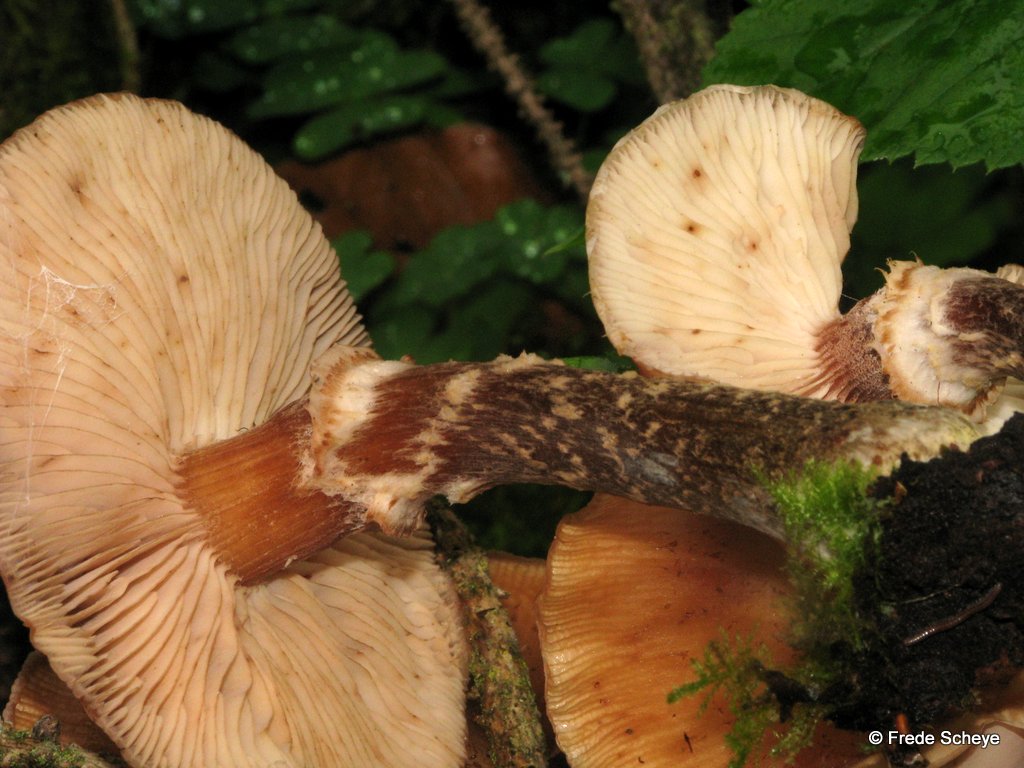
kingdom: Fungi
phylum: Basidiomycota
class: Agaricomycetes
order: Agaricales
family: Physalacriaceae
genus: Armillaria
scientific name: Armillaria lutea
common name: køllestokket honningsvamp
